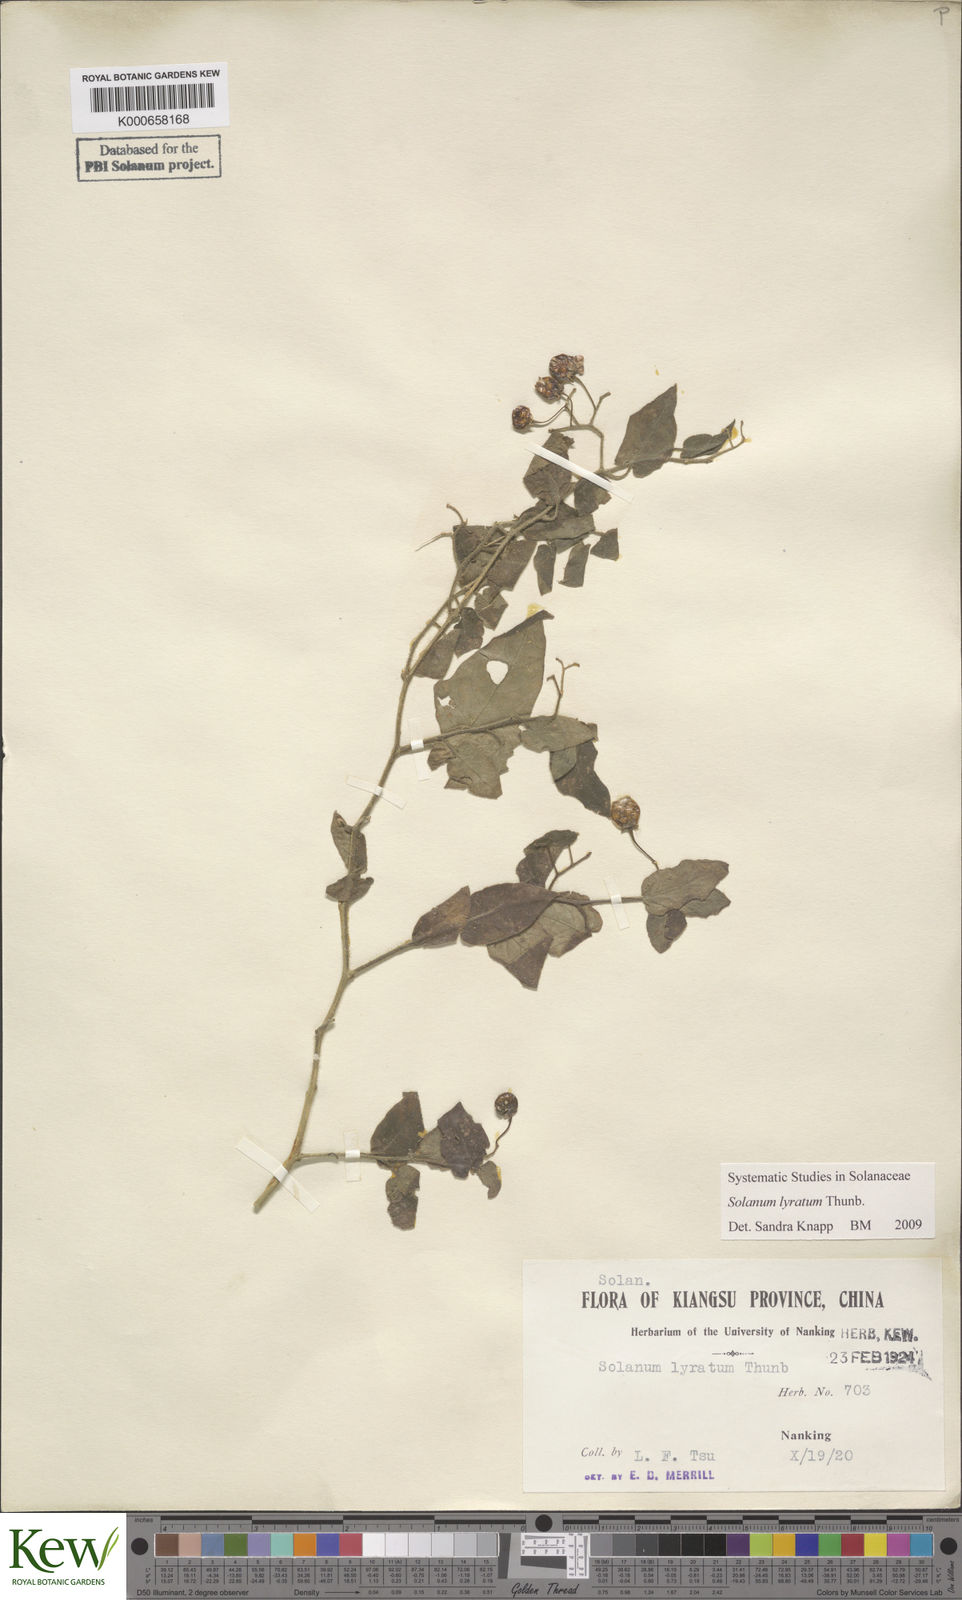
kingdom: Plantae
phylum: Tracheophyta
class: Magnoliopsida
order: Solanales
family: Solanaceae
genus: Solanum
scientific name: Solanum lyratum
